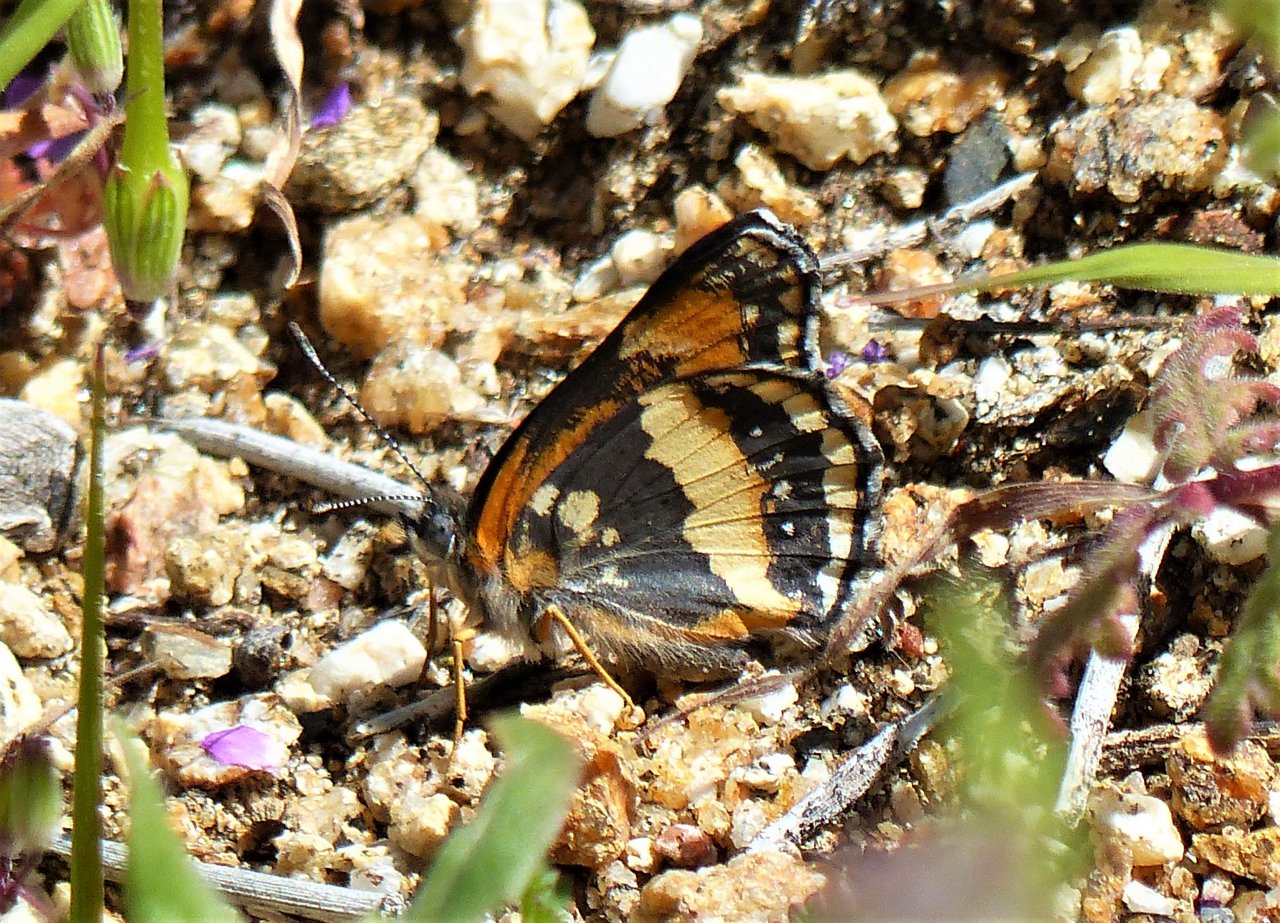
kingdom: Animalia
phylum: Arthropoda
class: Insecta
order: Lepidoptera
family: Nymphalidae
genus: Chlosyne
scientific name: Chlosyne californica
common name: California Patch
